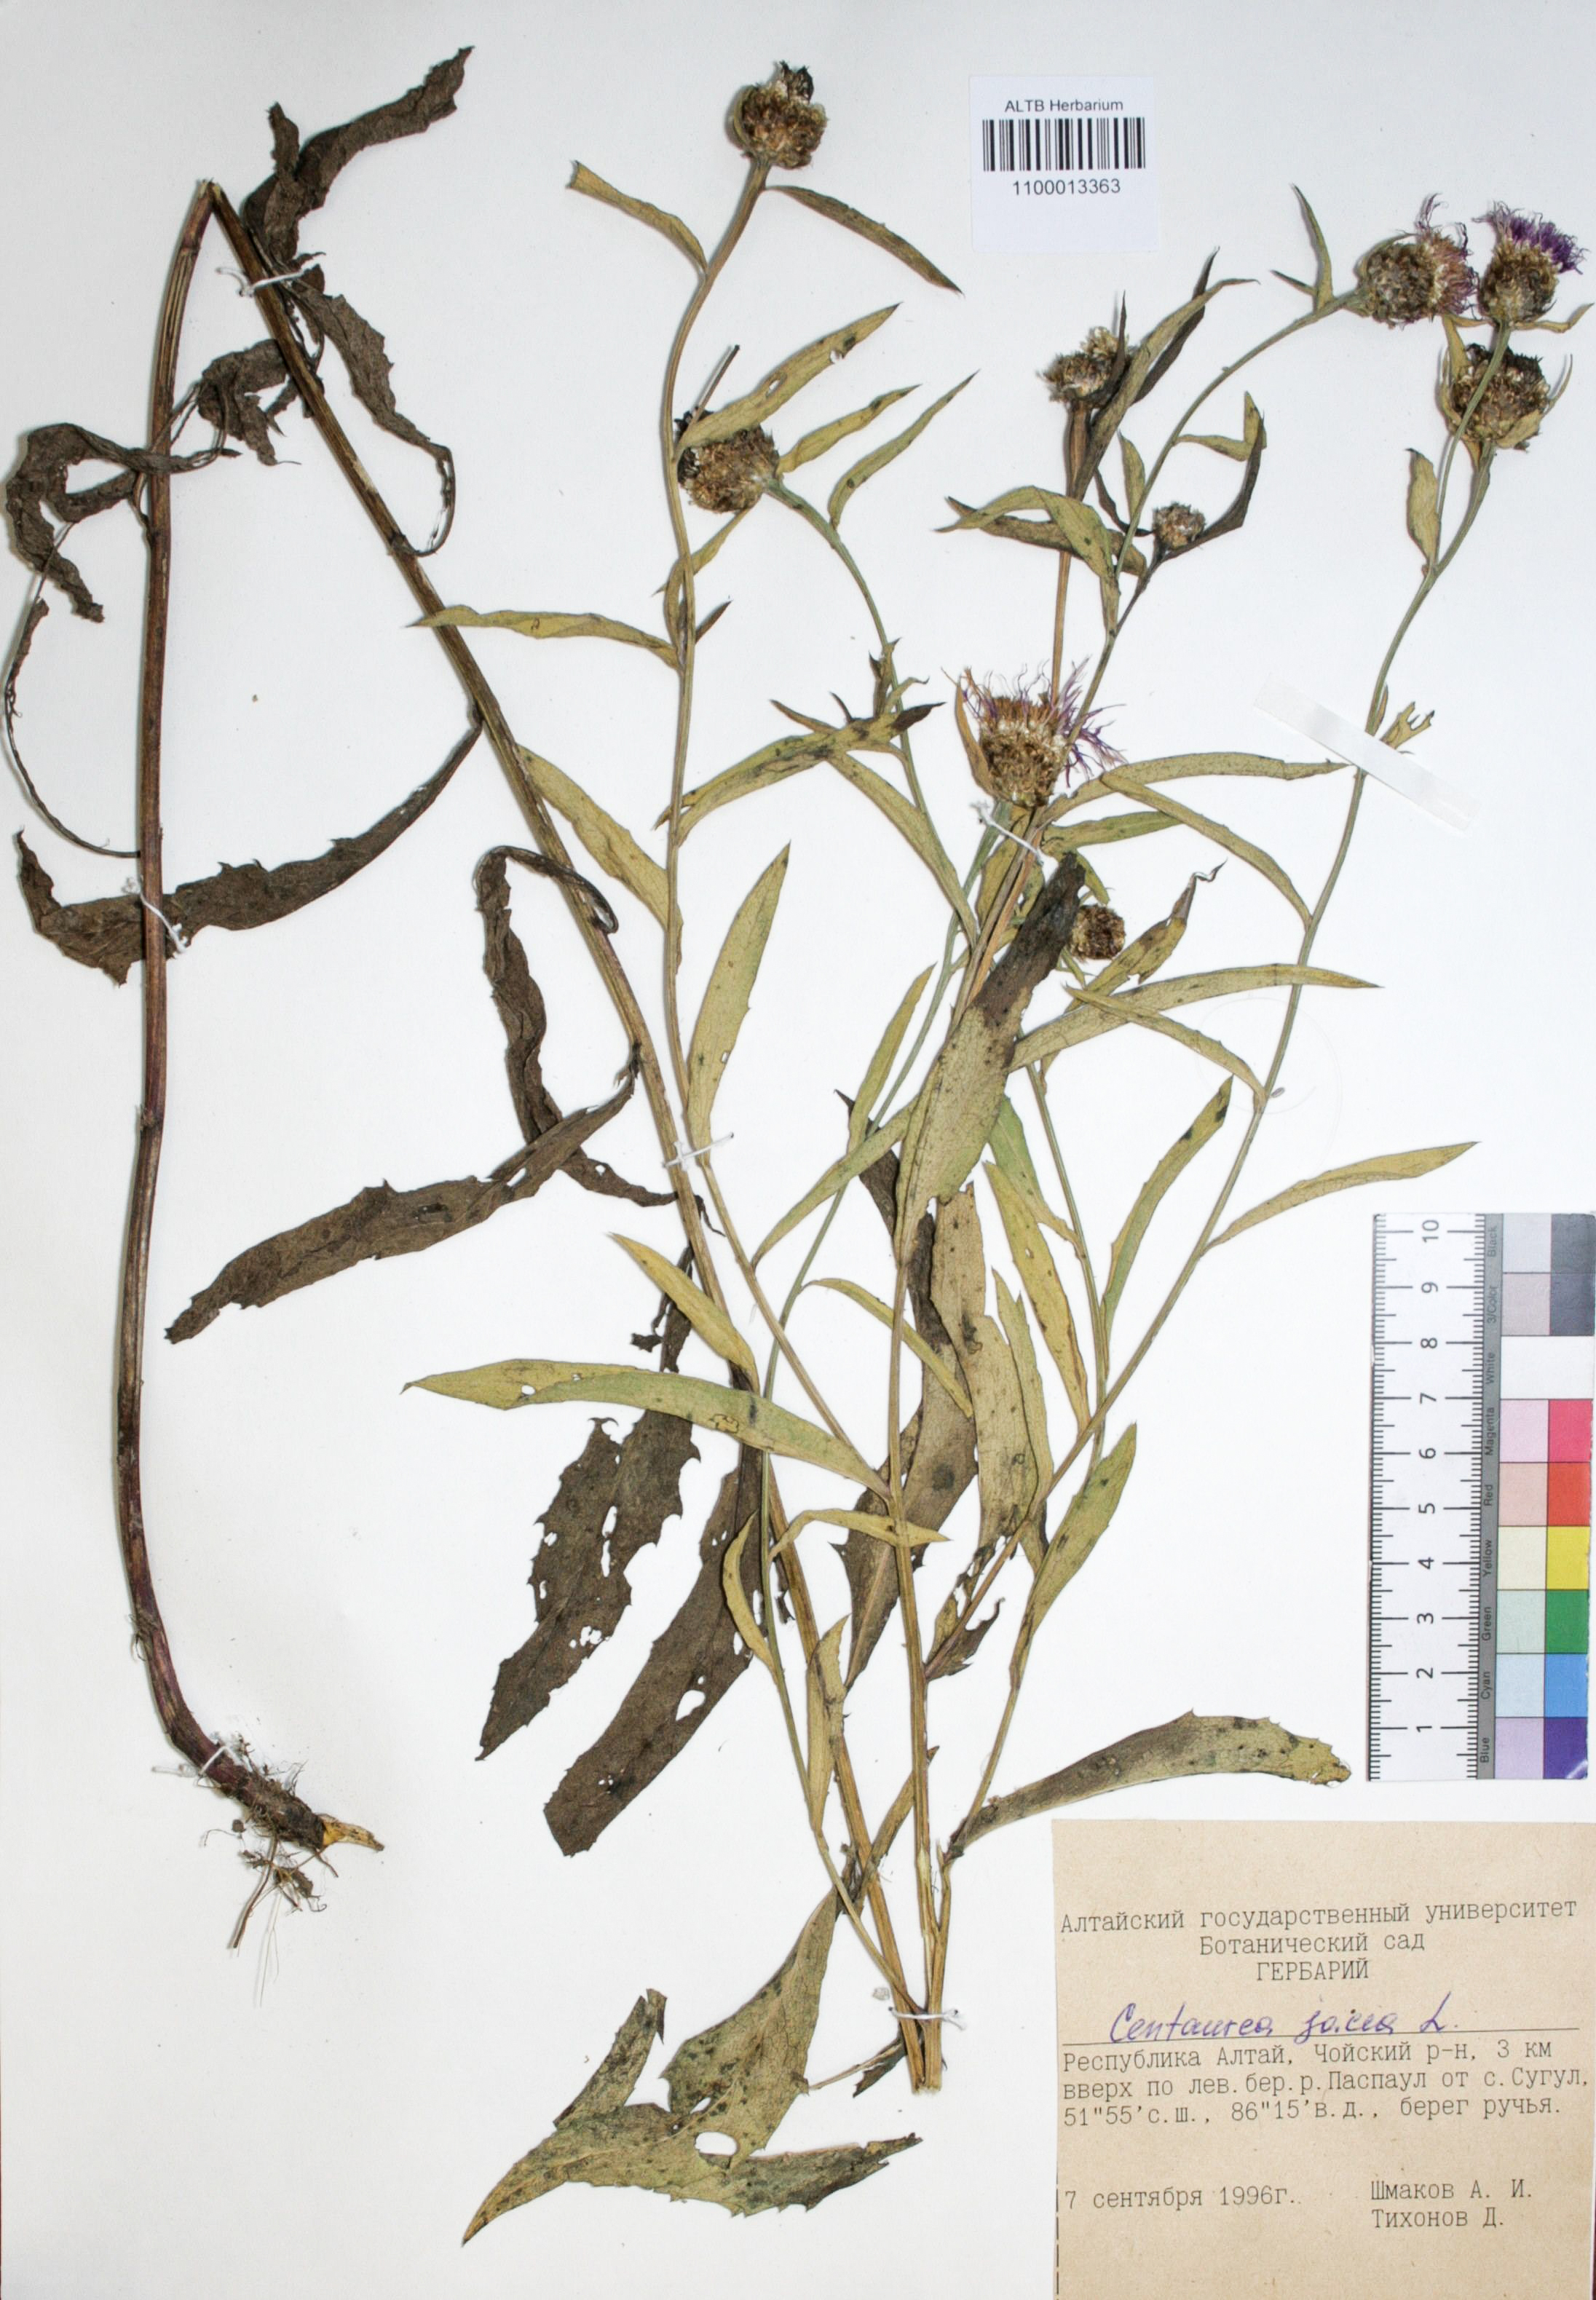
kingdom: Plantae
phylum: Tracheophyta
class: Magnoliopsida
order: Asterales
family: Asteraceae
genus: Centaurea
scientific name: Centaurea jacea
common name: Brown knapweed
